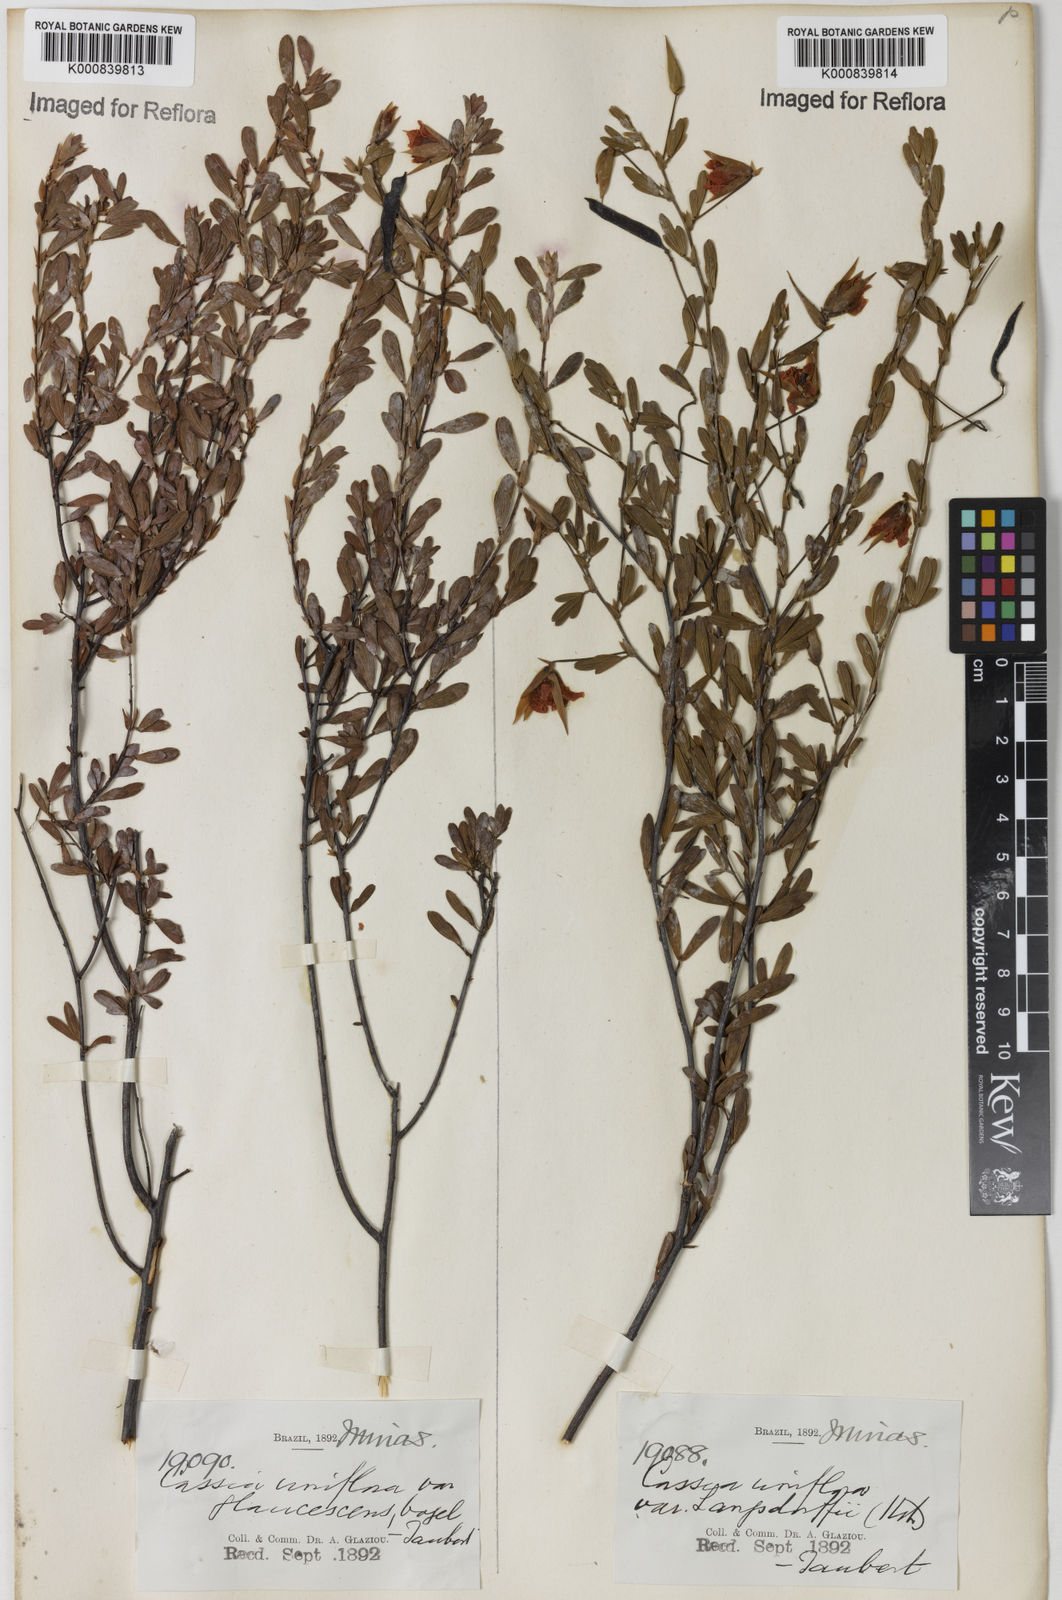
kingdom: Plantae
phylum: Tracheophyta
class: Magnoliopsida
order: Fabales
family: Fabaceae
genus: Chamaecrista
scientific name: Chamaecrista ramosa
